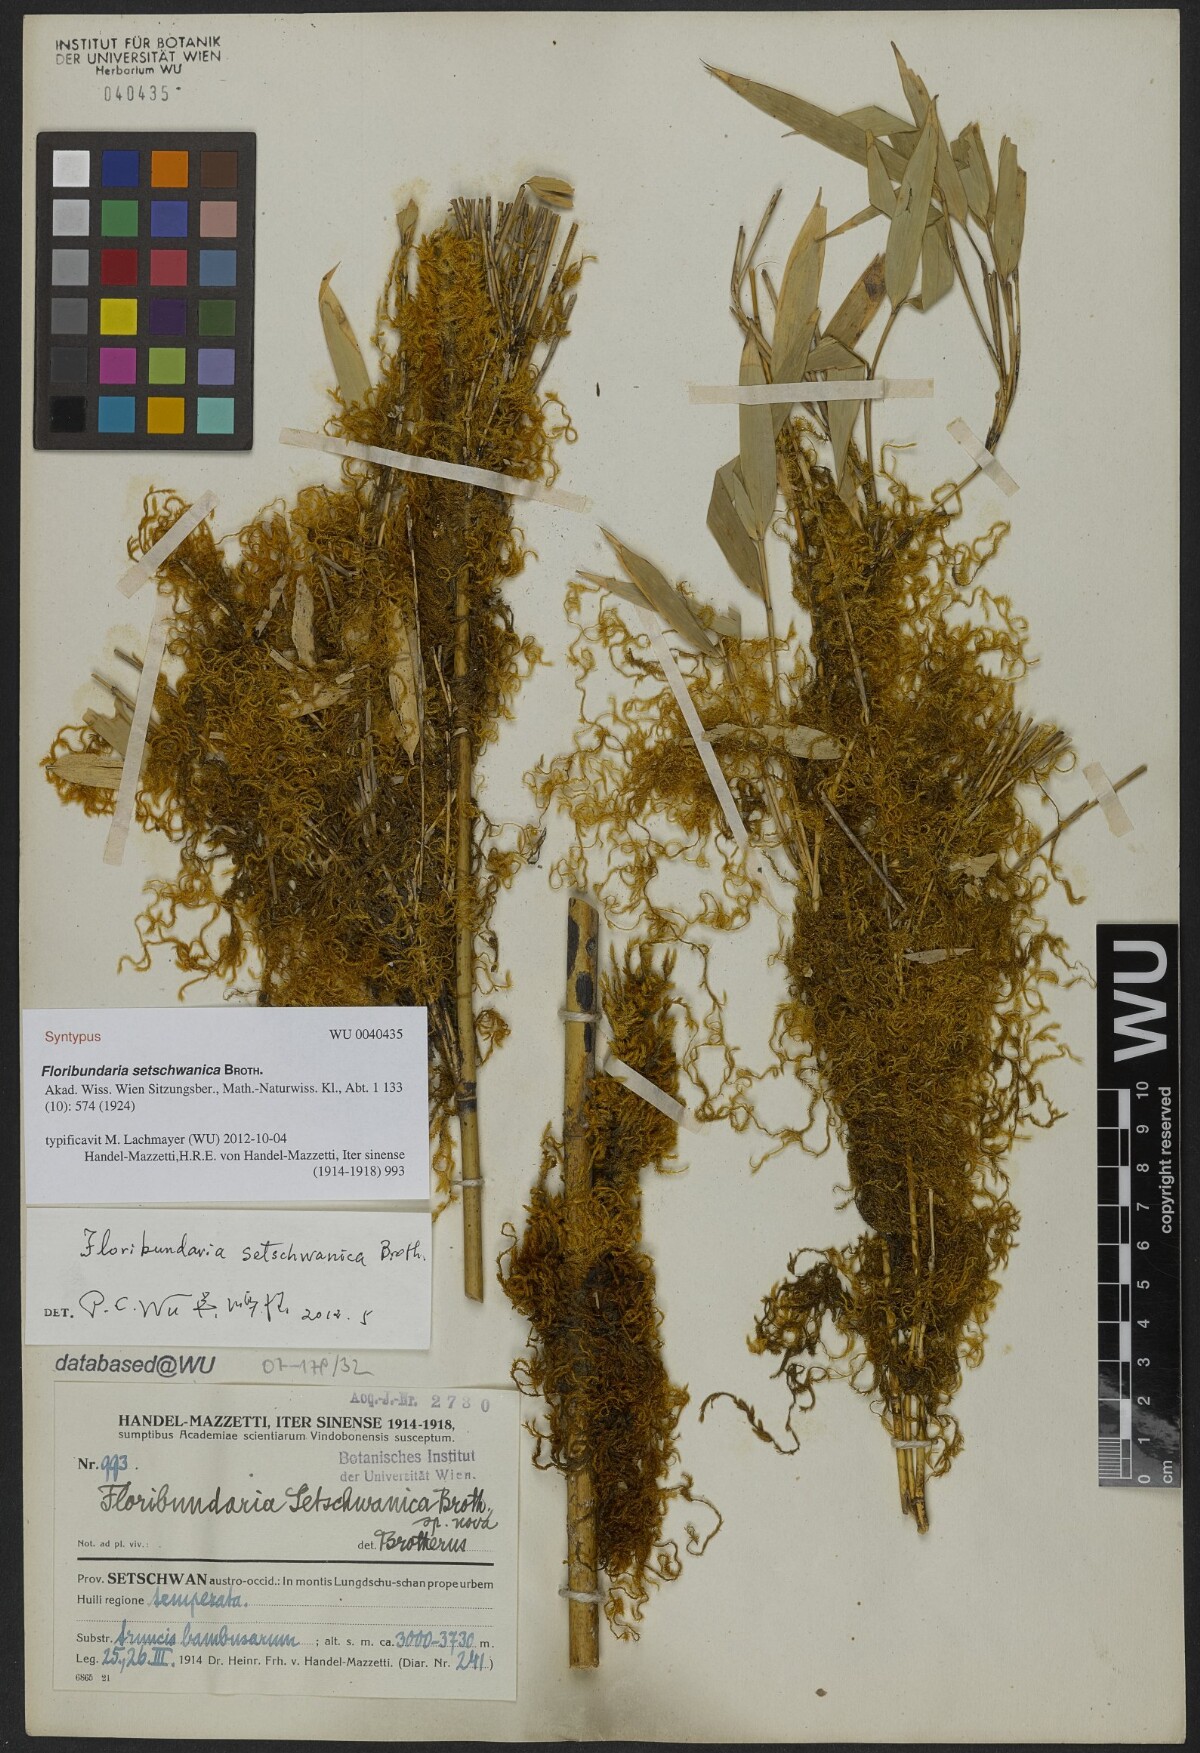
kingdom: Plantae
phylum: Bryophyta
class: Bryopsida
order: Hypnales
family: Meteoriaceae
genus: Floribundaria
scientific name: Floribundaria setschwanica
